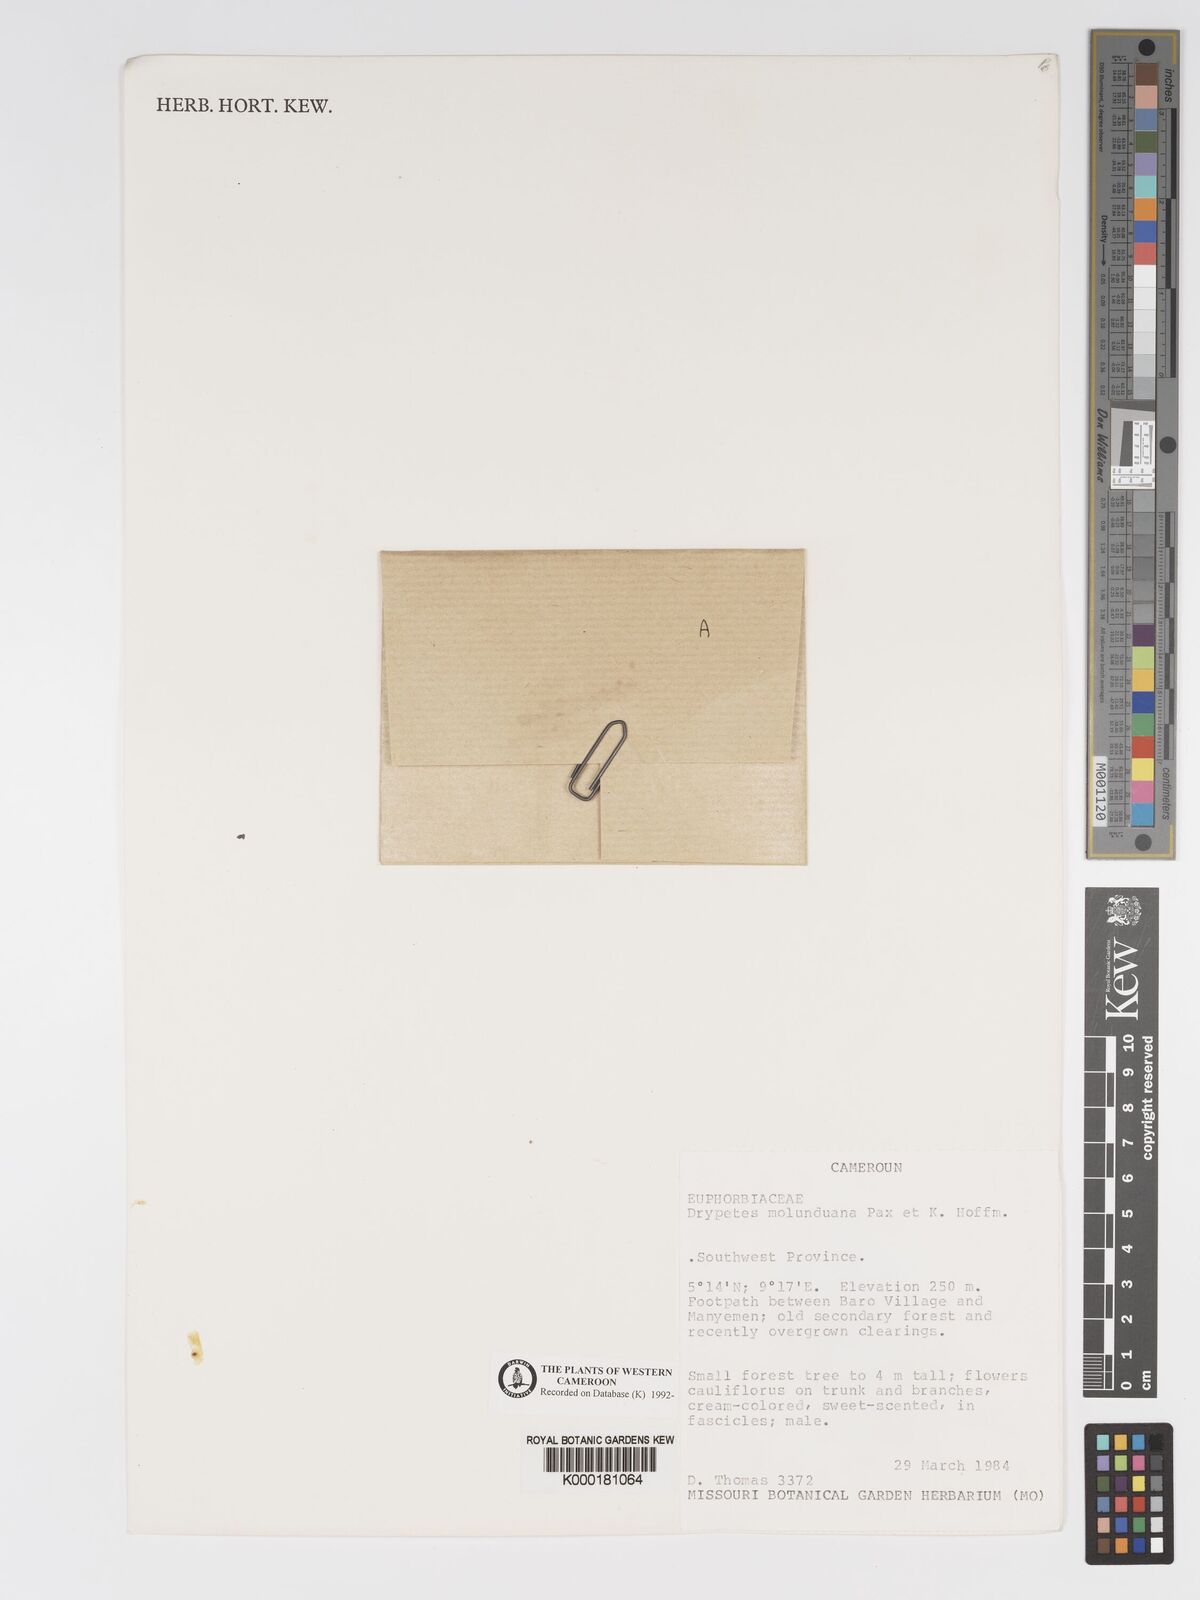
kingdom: Plantae
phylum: Tracheophyta
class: Magnoliopsida
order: Malpighiales
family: Putranjivaceae
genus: Drypetes
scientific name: Drypetes molunduana
